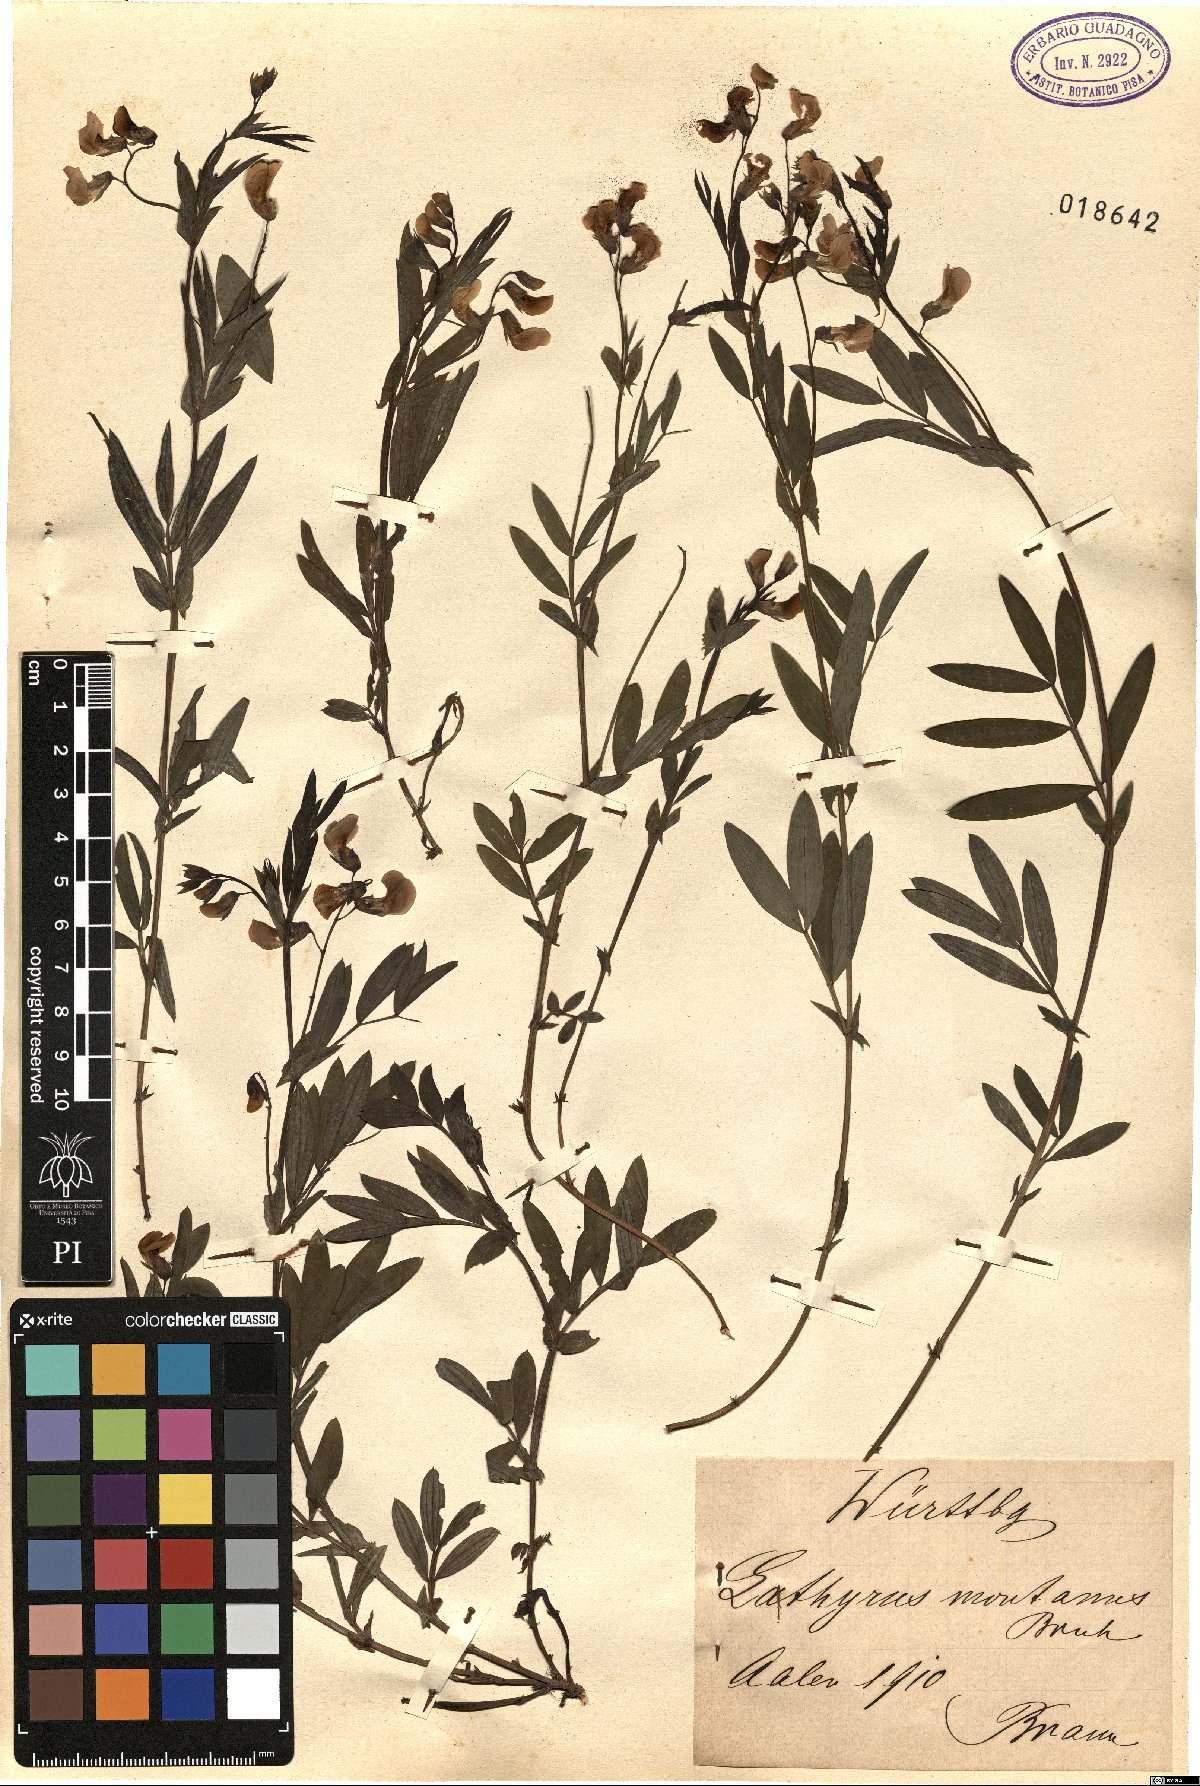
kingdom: Plantae
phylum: Tracheophyta
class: Magnoliopsida
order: Fabales
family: Fabaceae
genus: Lathyrus
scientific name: Lathyrus linifolius
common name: Bitter-vetch
